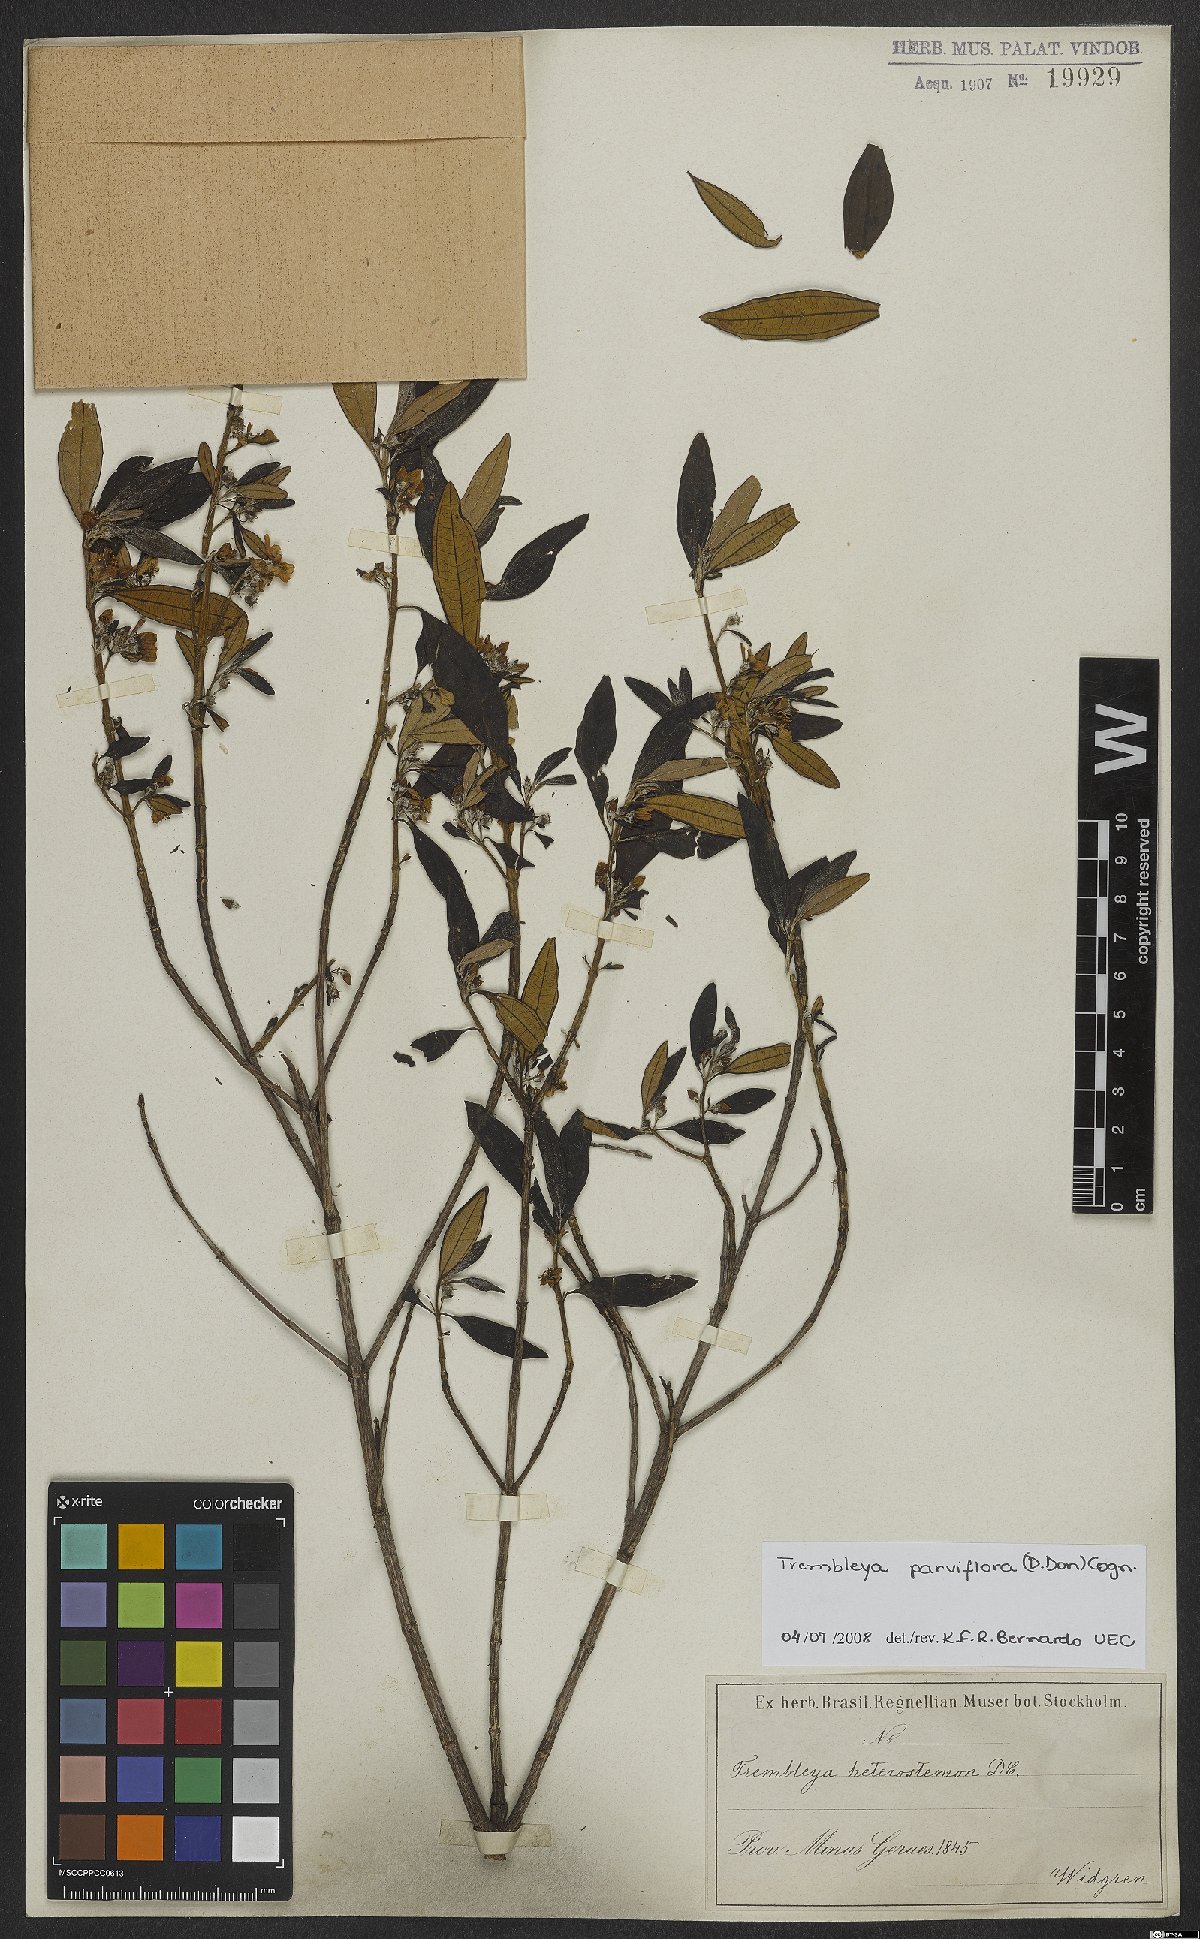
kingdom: Plantae
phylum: Tracheophyta
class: Magnoliopsida
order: Myrtales
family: Melastomataceae
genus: Microlicia
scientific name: Microlicia parviflora
